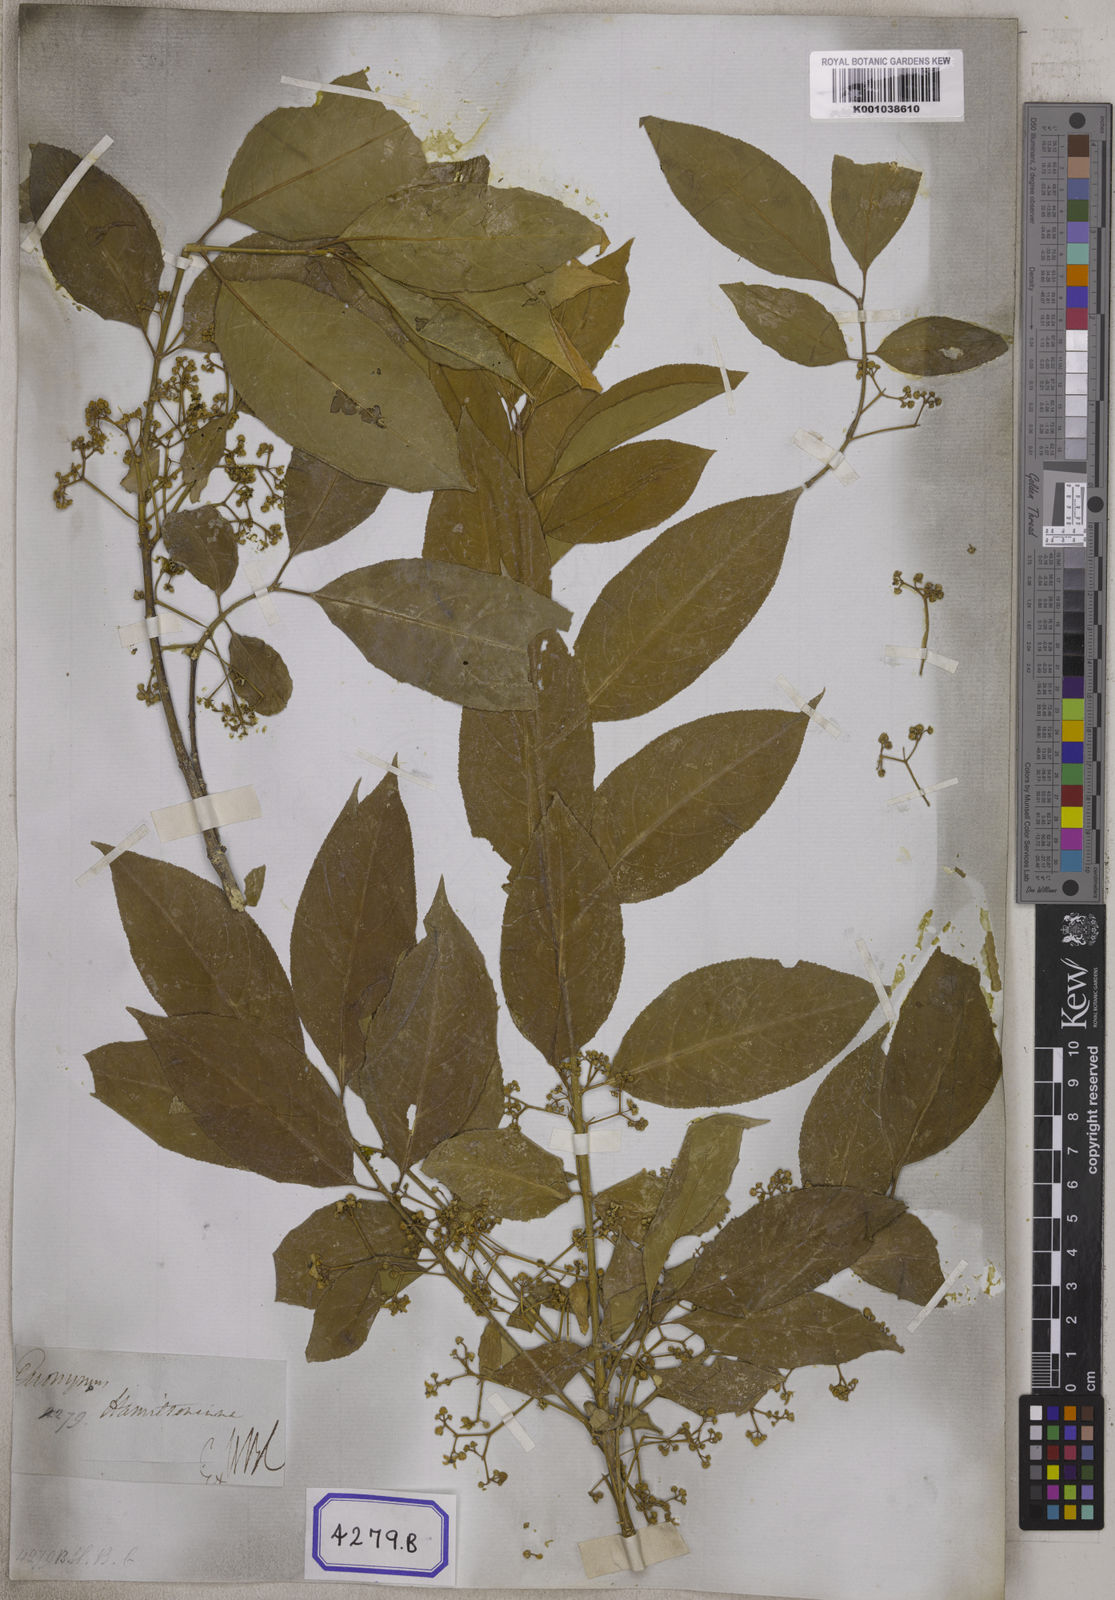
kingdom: Plantae
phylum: Tracheophyta
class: Magnoliopsida
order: Celastrales
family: Celastraceae
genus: Euonymus
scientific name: Euonymus hamiltonianus
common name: Hamilton's spindletree
